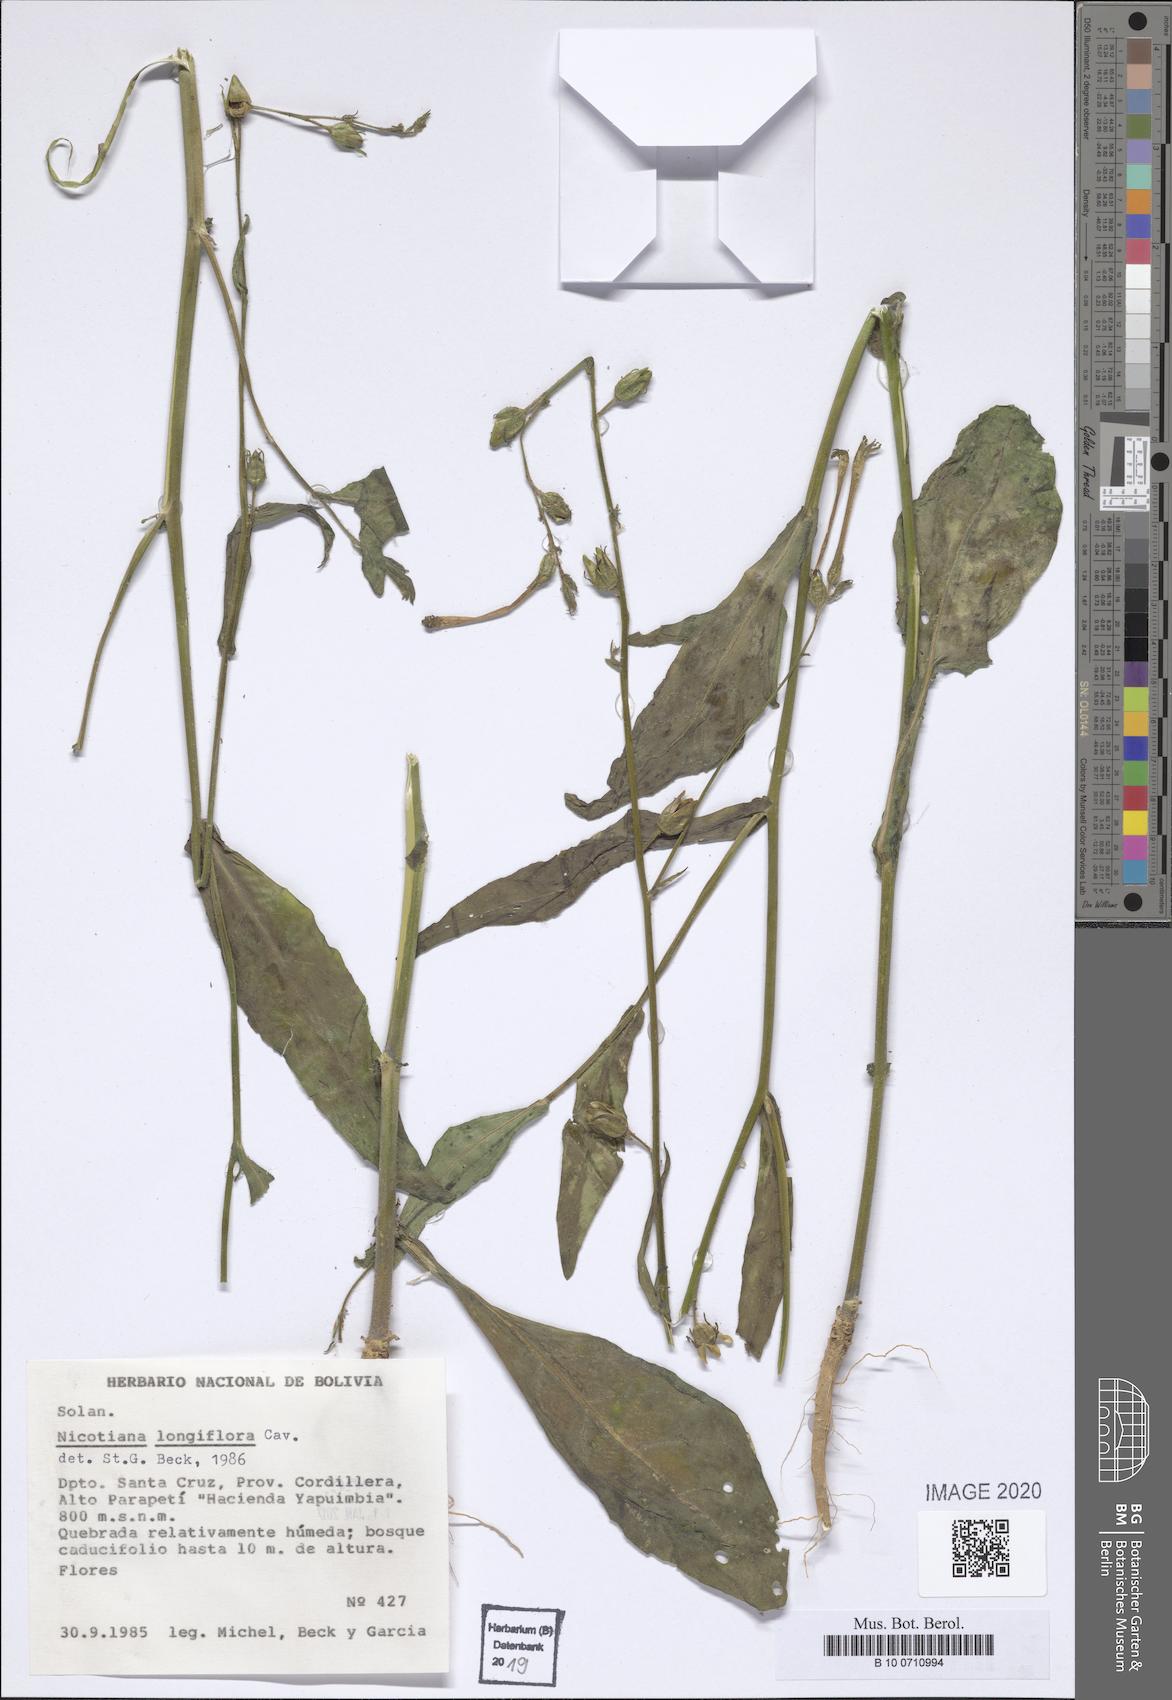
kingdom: Plantae
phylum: Tracheophyta
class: Magnoliopsida
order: Solanales
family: Solanaceae
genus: Nicotiana
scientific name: Nicotiana longiflora
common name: Long-flowered tobacco
